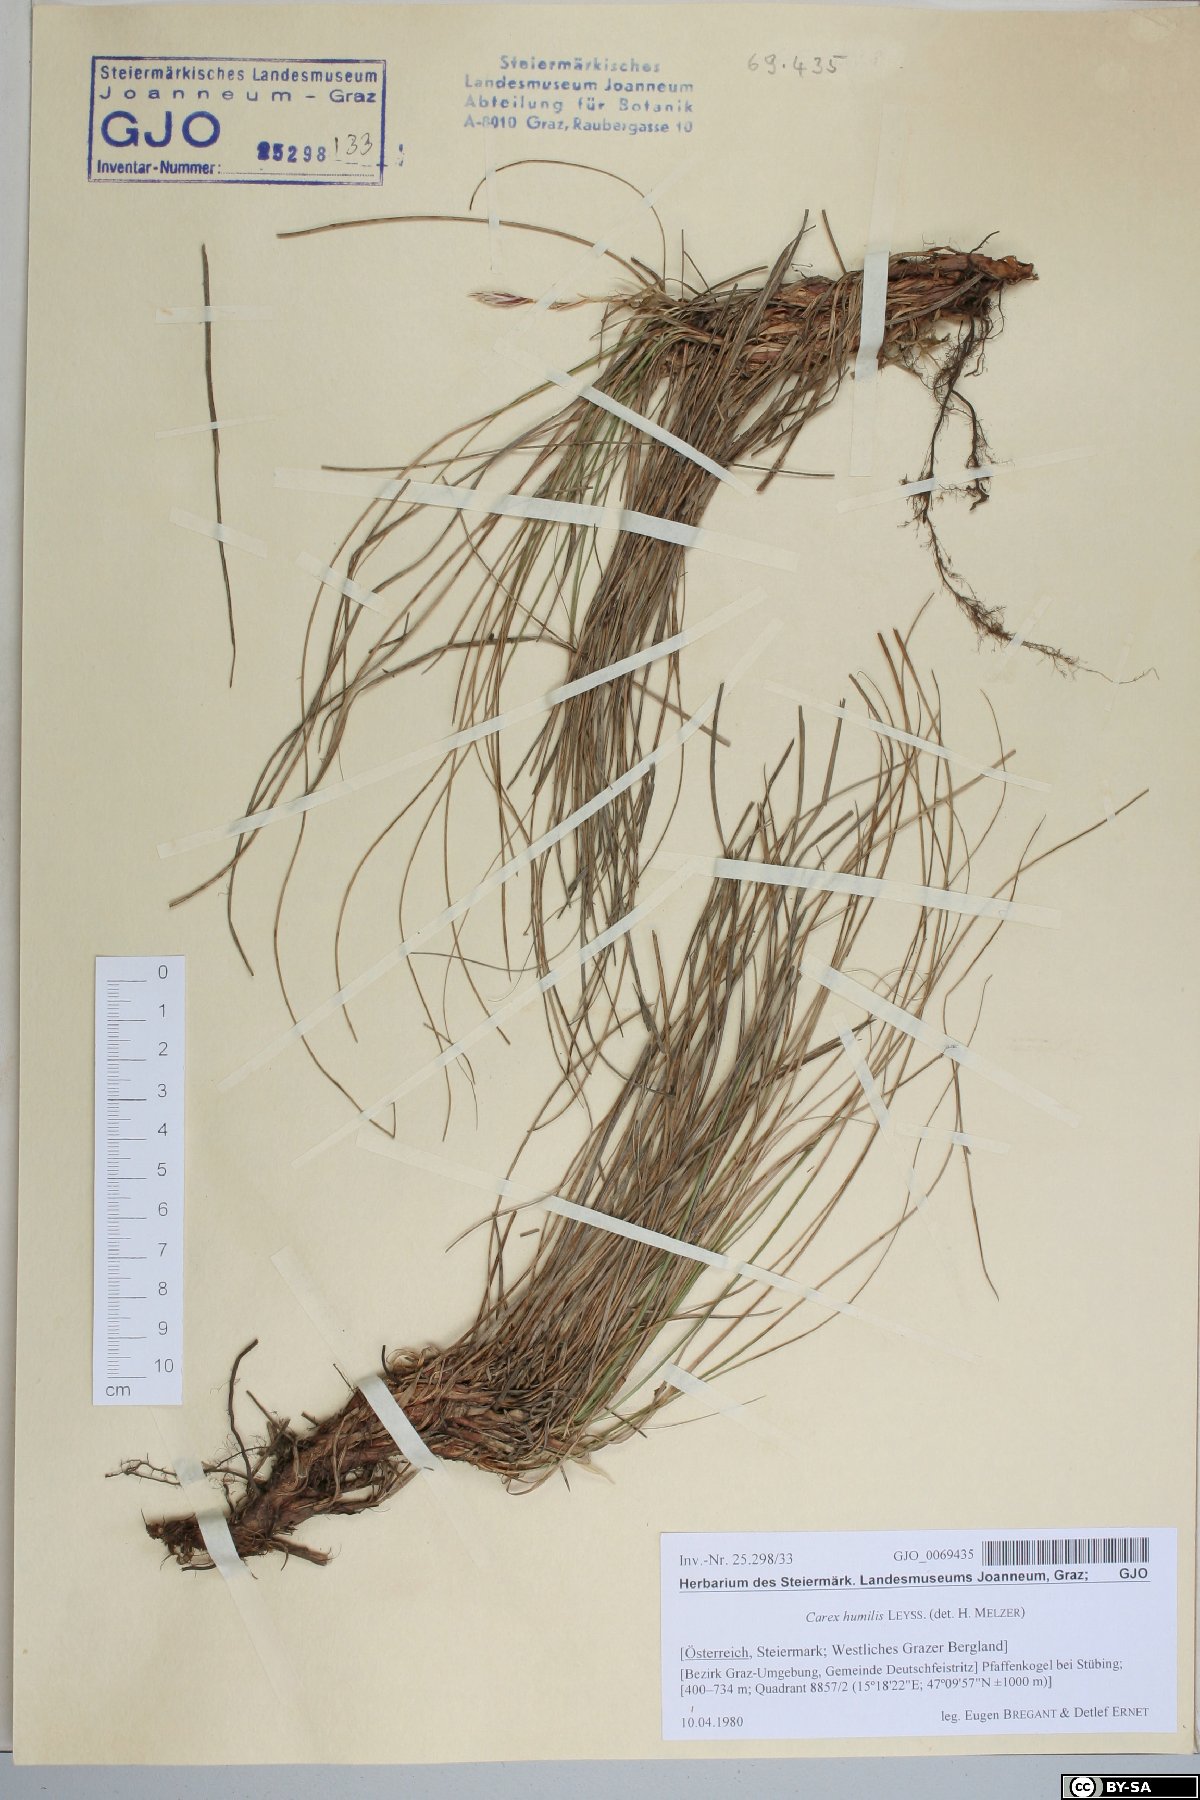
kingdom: Plantae
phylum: Tracheophyta
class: Liliopsida
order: Poales
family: Cyperaceae
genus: Carex
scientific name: Carex humilis
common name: Dwarf sedge
